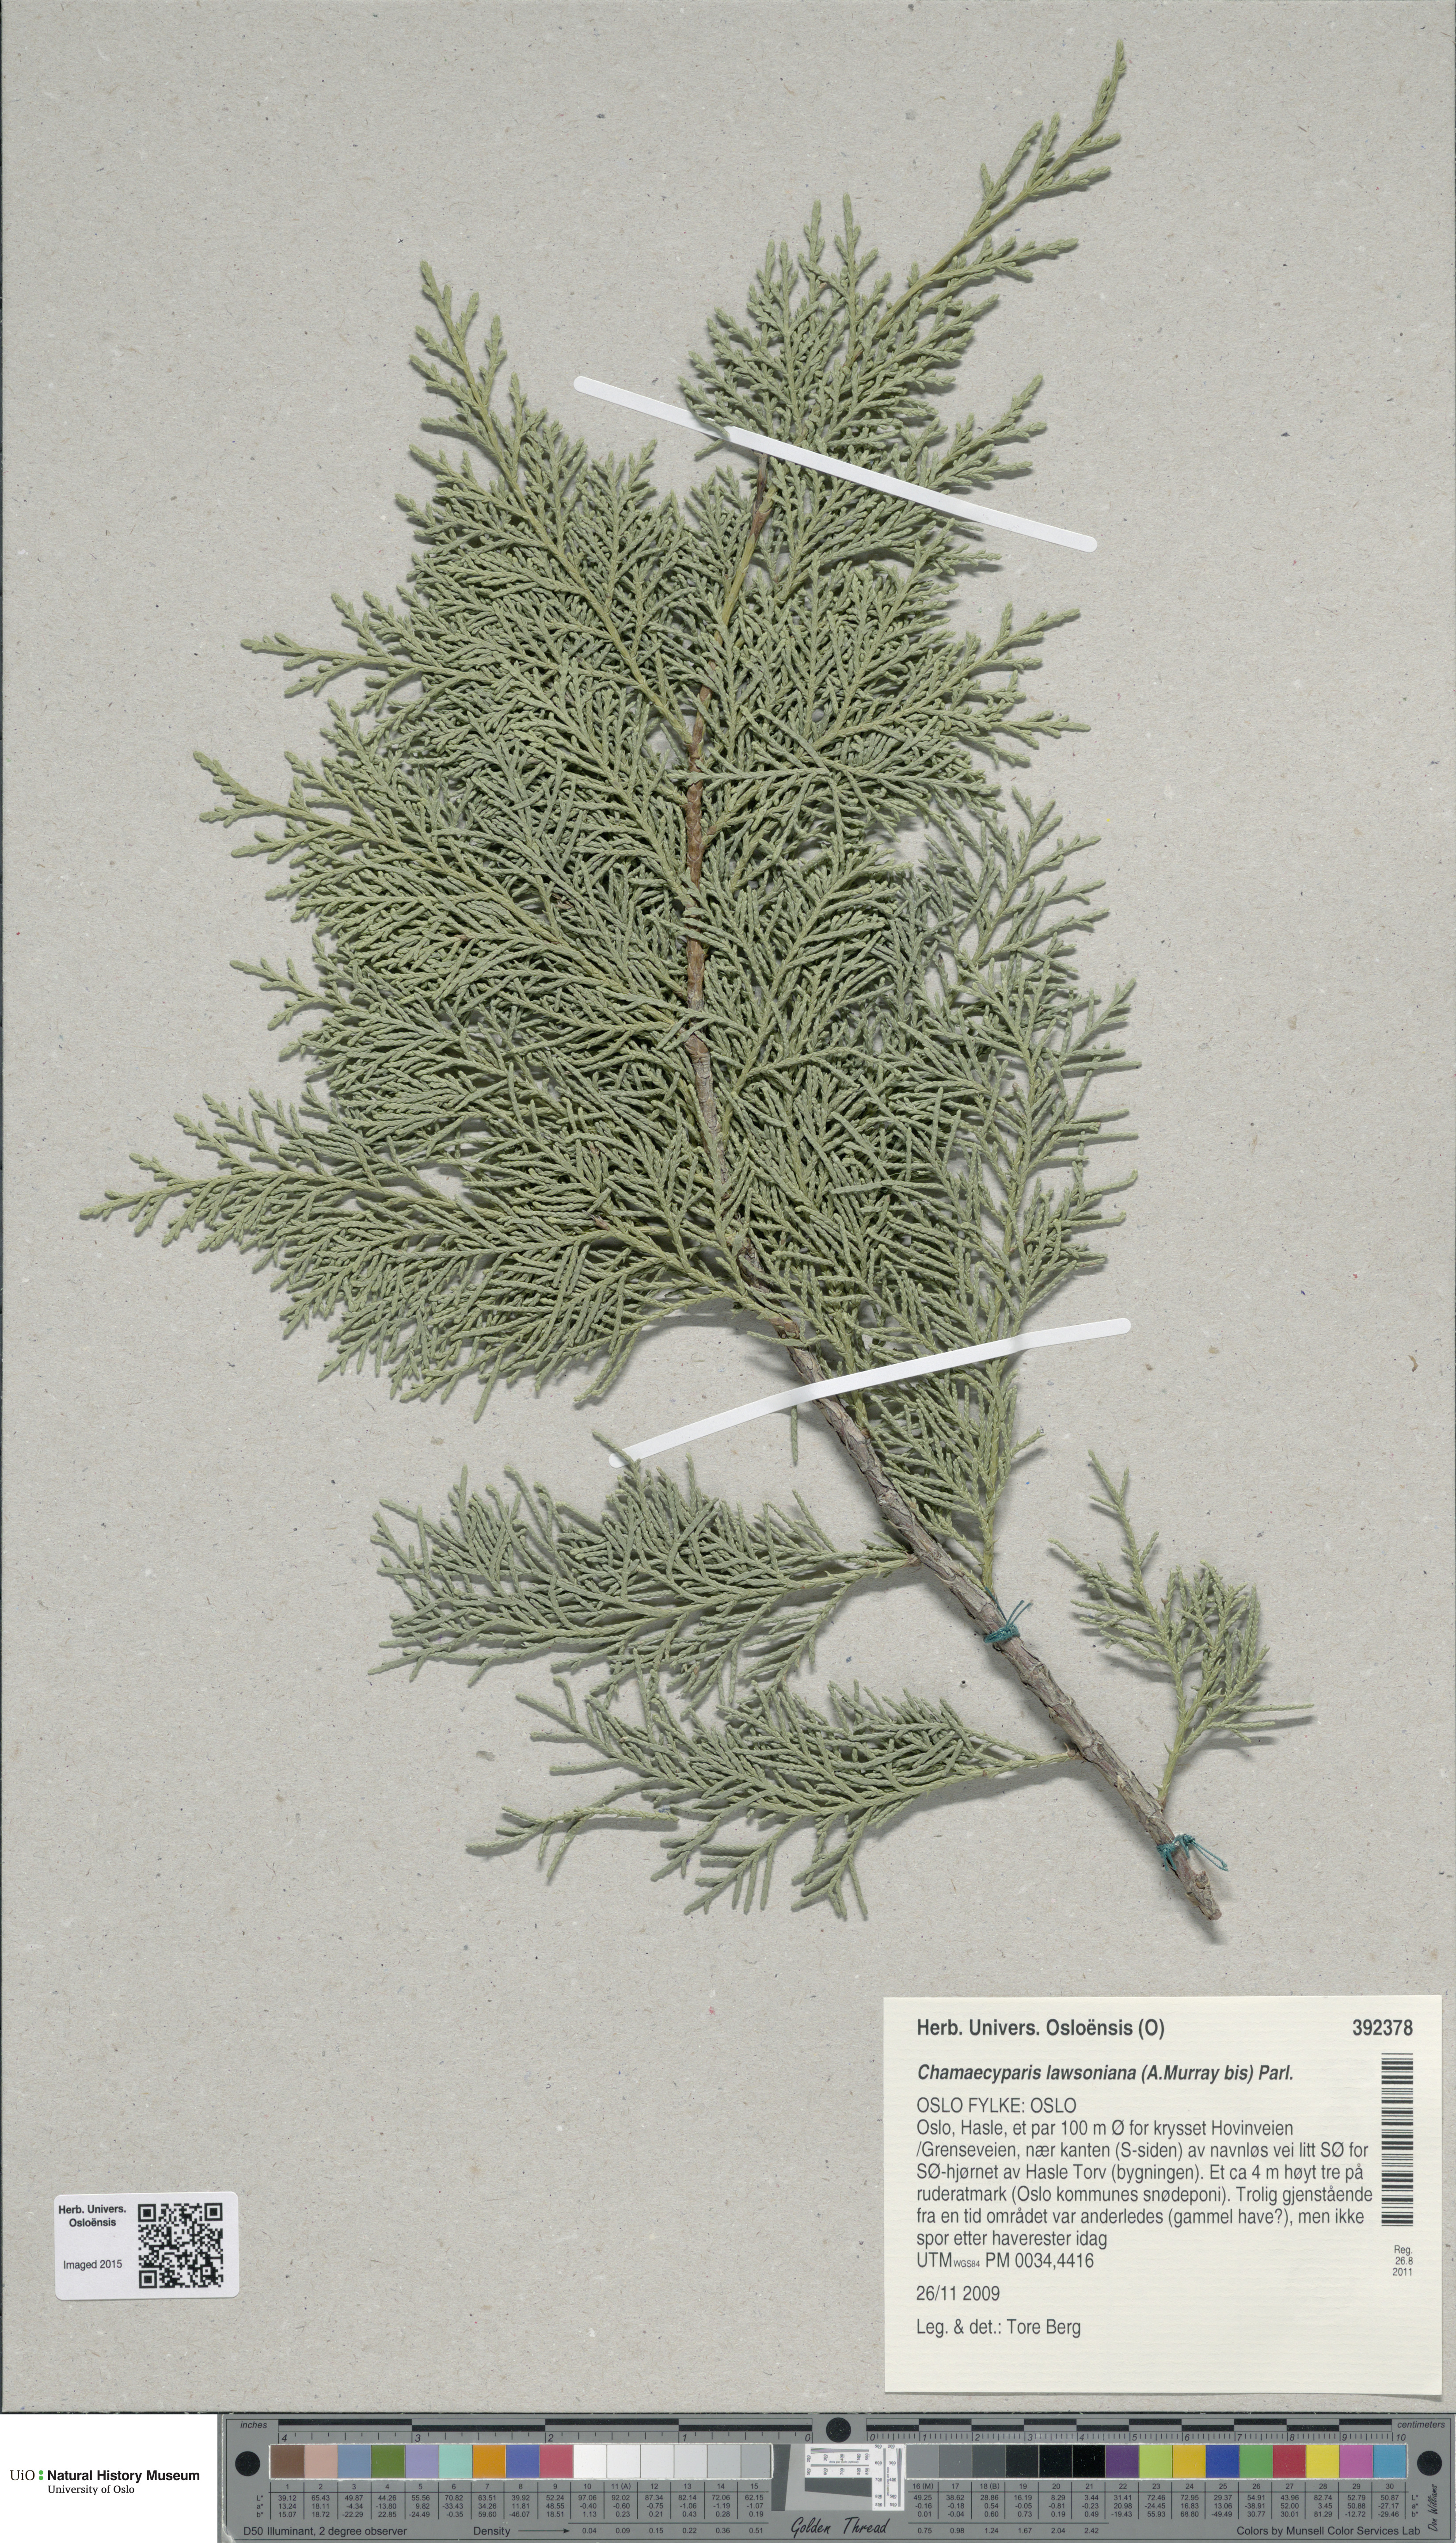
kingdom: Plantae
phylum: Tracheophyta
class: Pinopsida
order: Pinales
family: Cupressaceae
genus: Chamaecyparis
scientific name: Chamaecyparis lawsoniana
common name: Lawson's cypress
